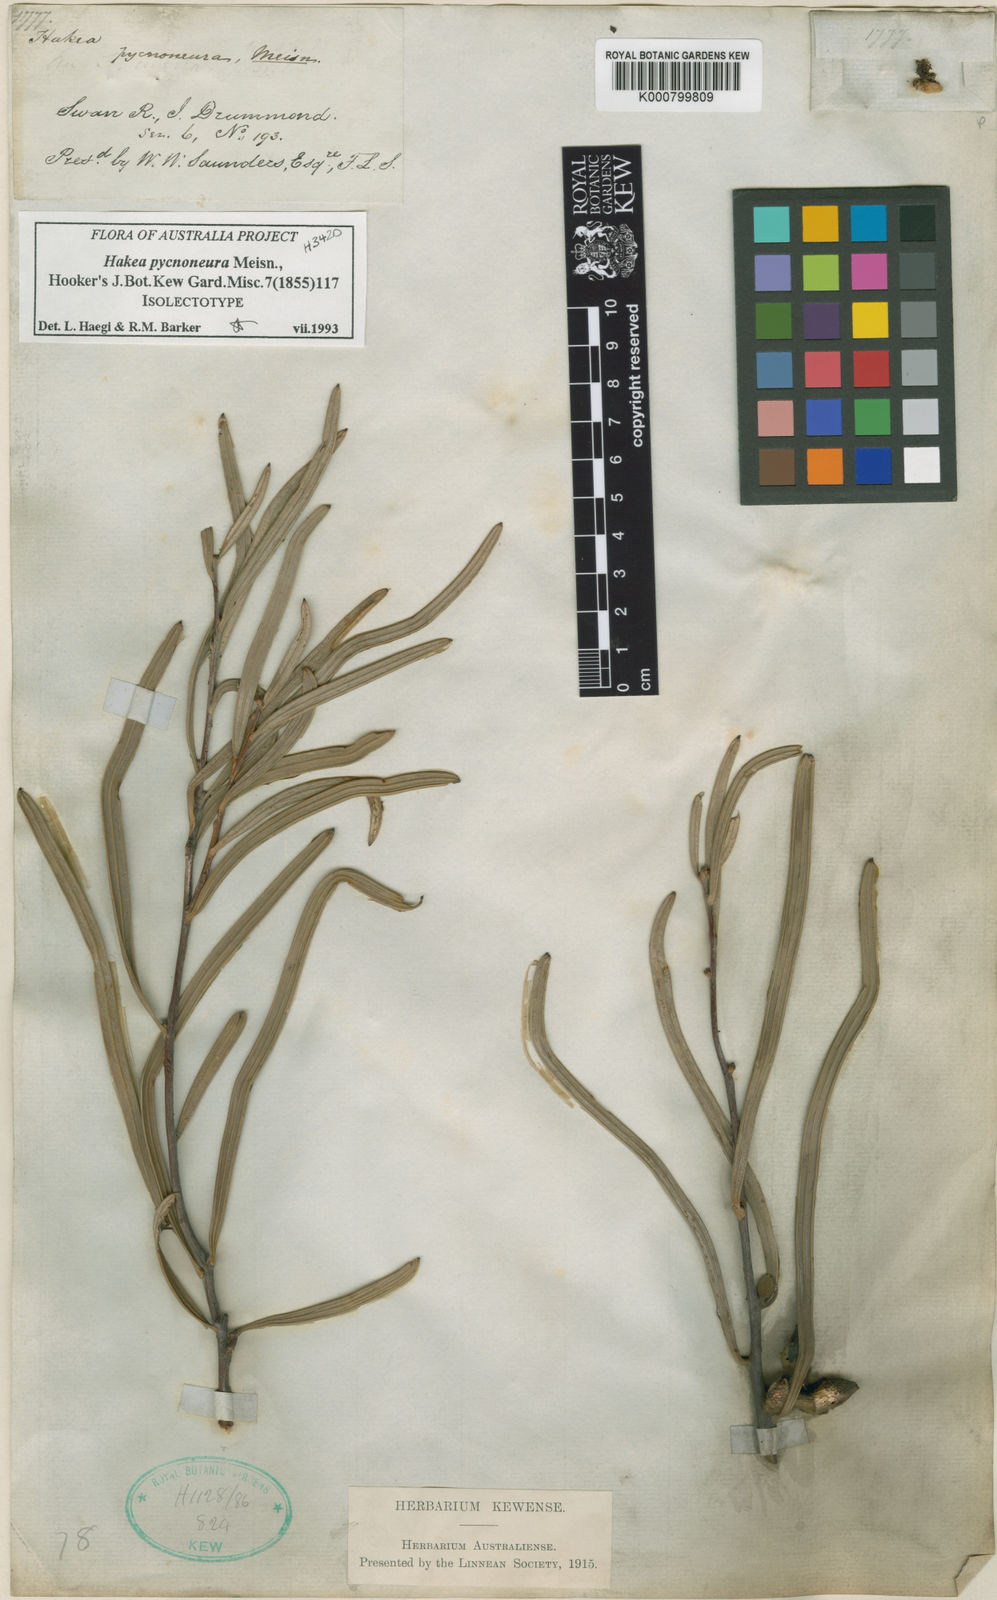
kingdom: Plantae
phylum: Tracheophyta
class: Magnoliopsida
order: Proteales
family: Proteaceae
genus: Hakea
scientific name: Hakea pycnoneura
